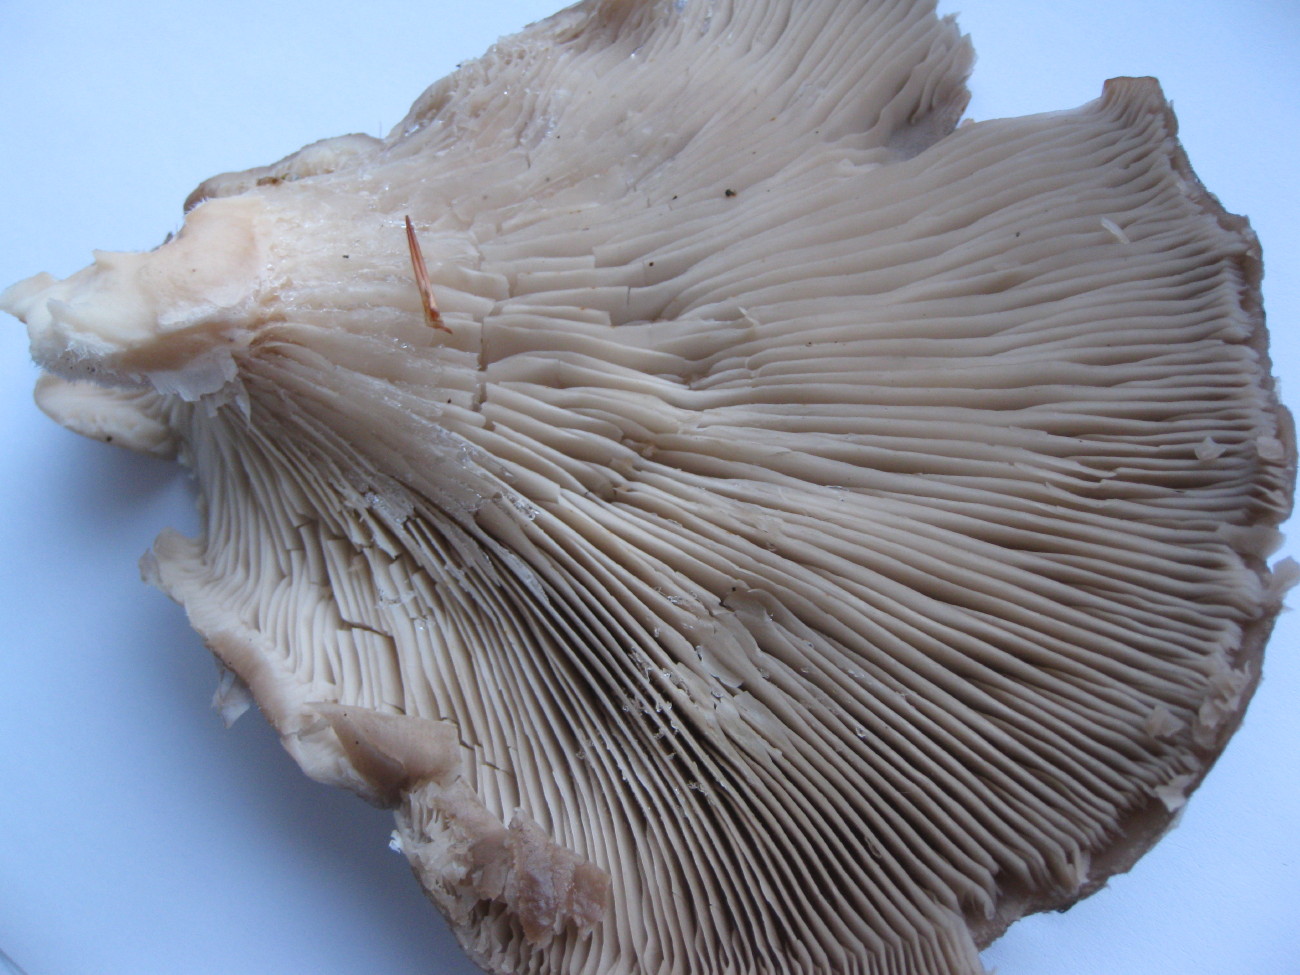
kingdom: Fungi
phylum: Basidiomycota
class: Agaricomycetes
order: Agaricales
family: Pleurotaceae
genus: Pleurotus
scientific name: Pleurotus ostreatus
